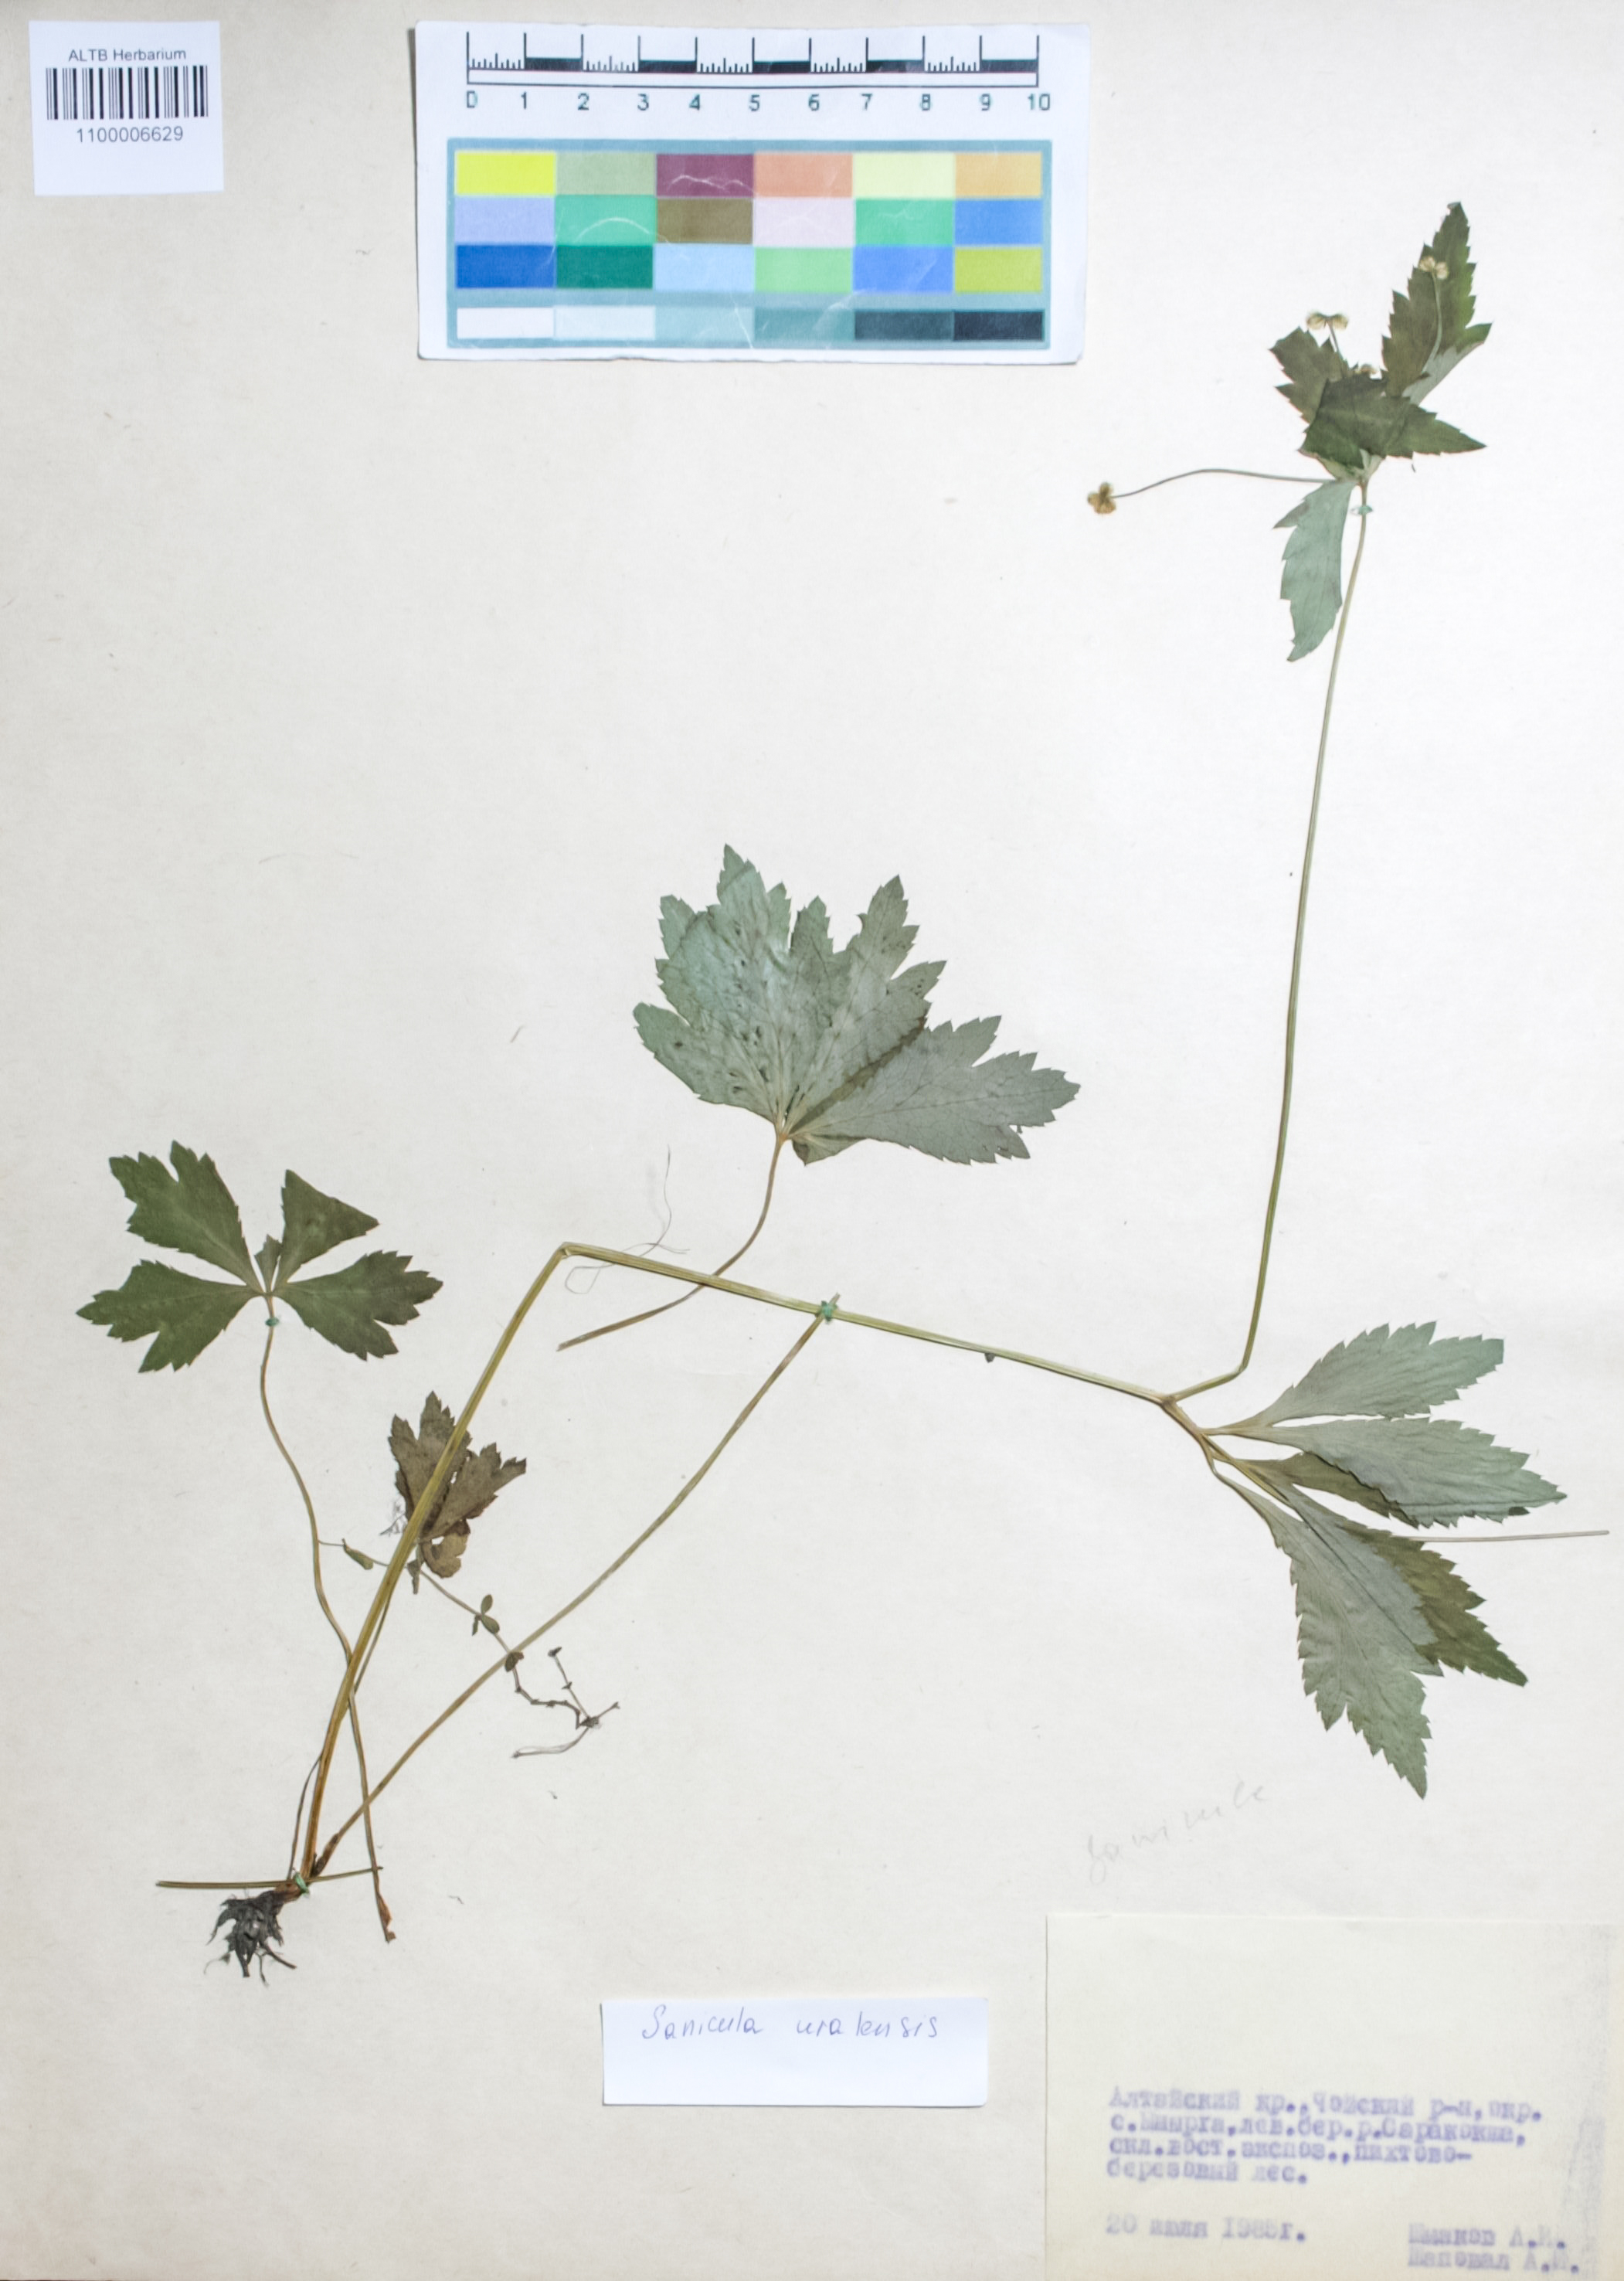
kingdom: Plantae
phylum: Tracheophyta
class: Magnoliopsida
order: Apiales
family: Apiaceae
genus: Sanicula
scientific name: Sanicula giraldii
